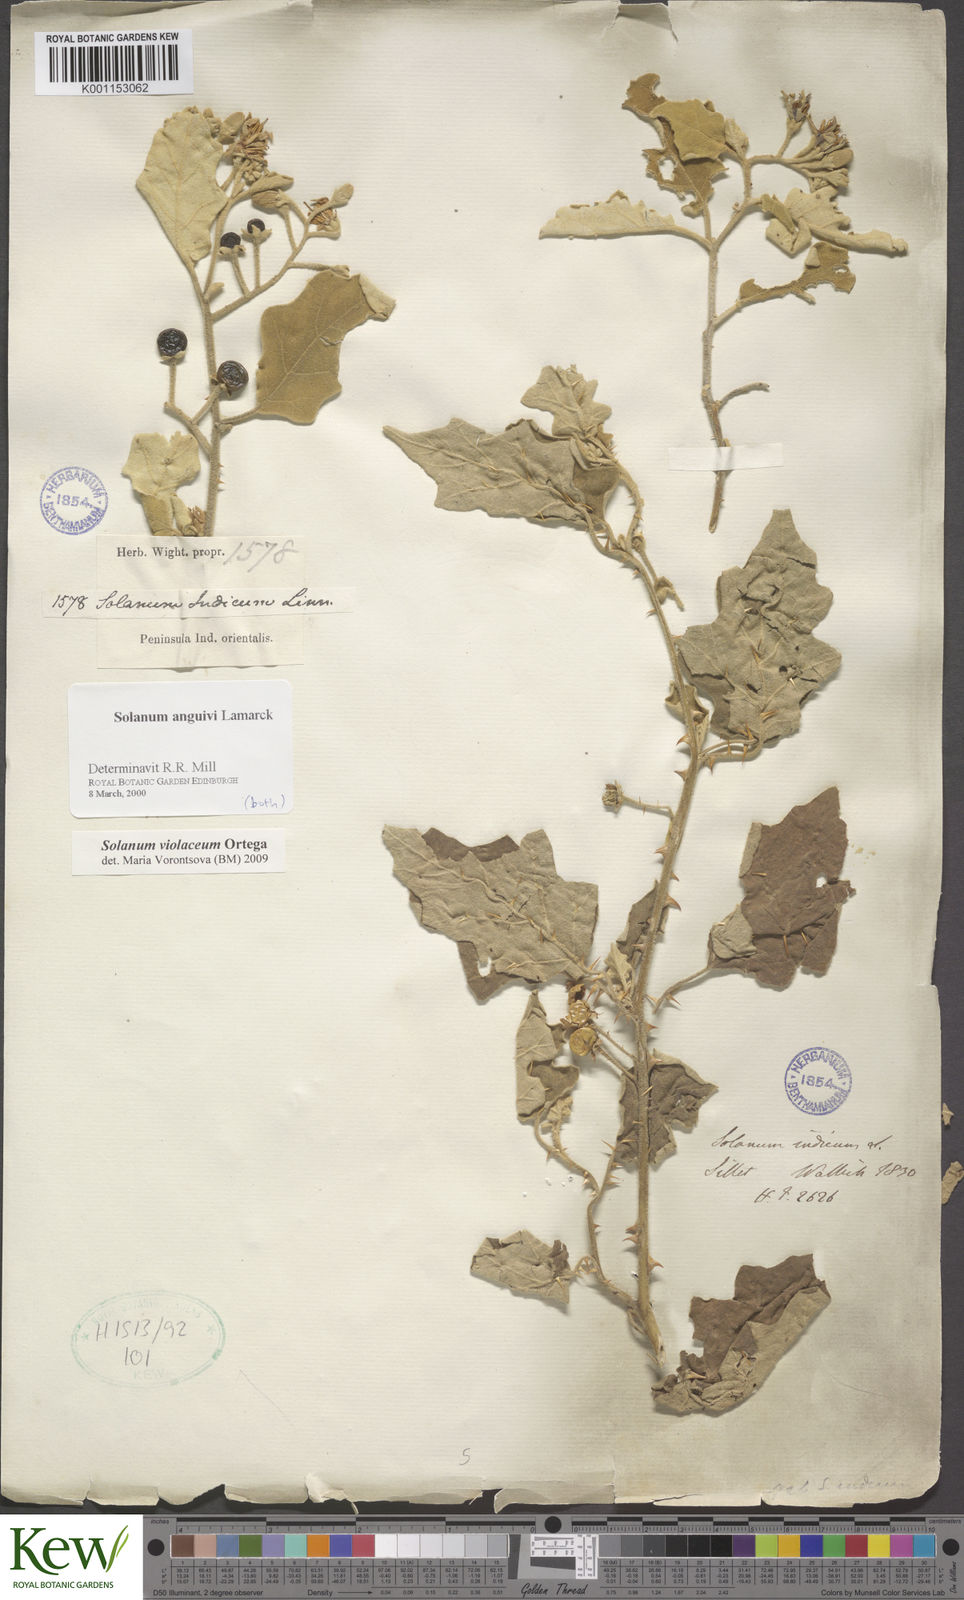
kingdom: Plantae
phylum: Tracheophyta
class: Magnoliopsida
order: Solanales
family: Solanaceae
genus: Solanum
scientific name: Solanum violaceum
